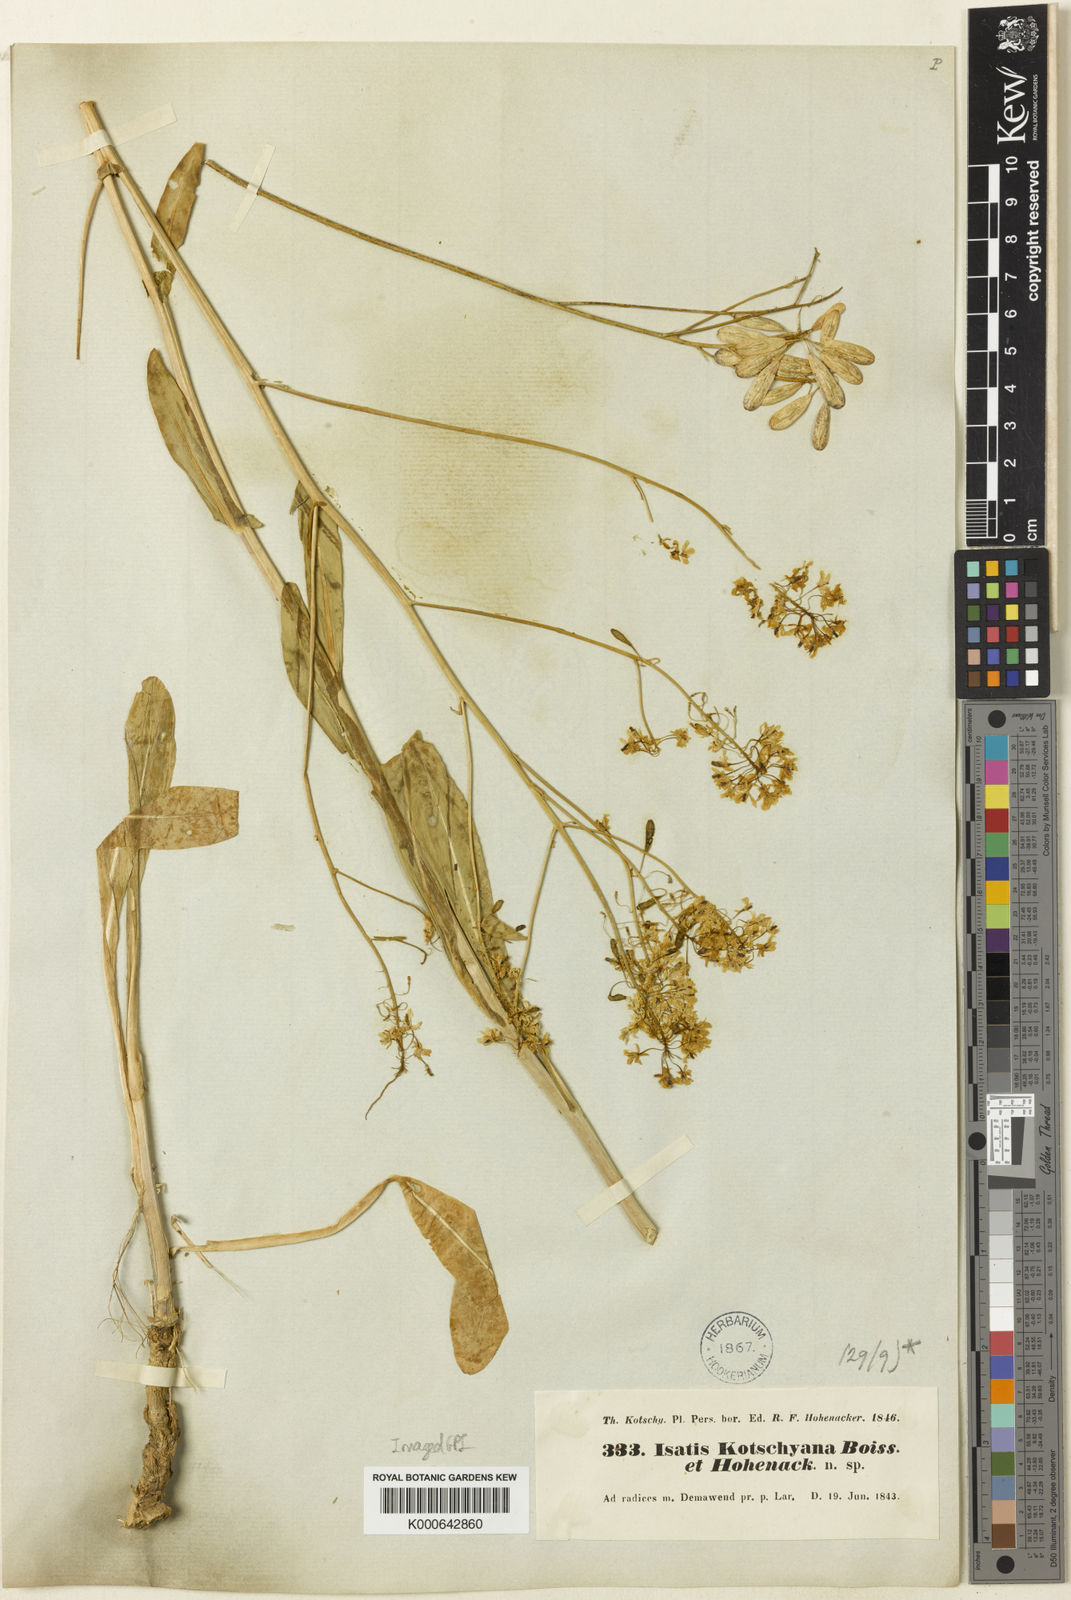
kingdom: Plantae
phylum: Tracheophyta
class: Magnoliopsida
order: Brassicales
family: Brassicaceae
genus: Isatis
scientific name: Isatis kotschyana
